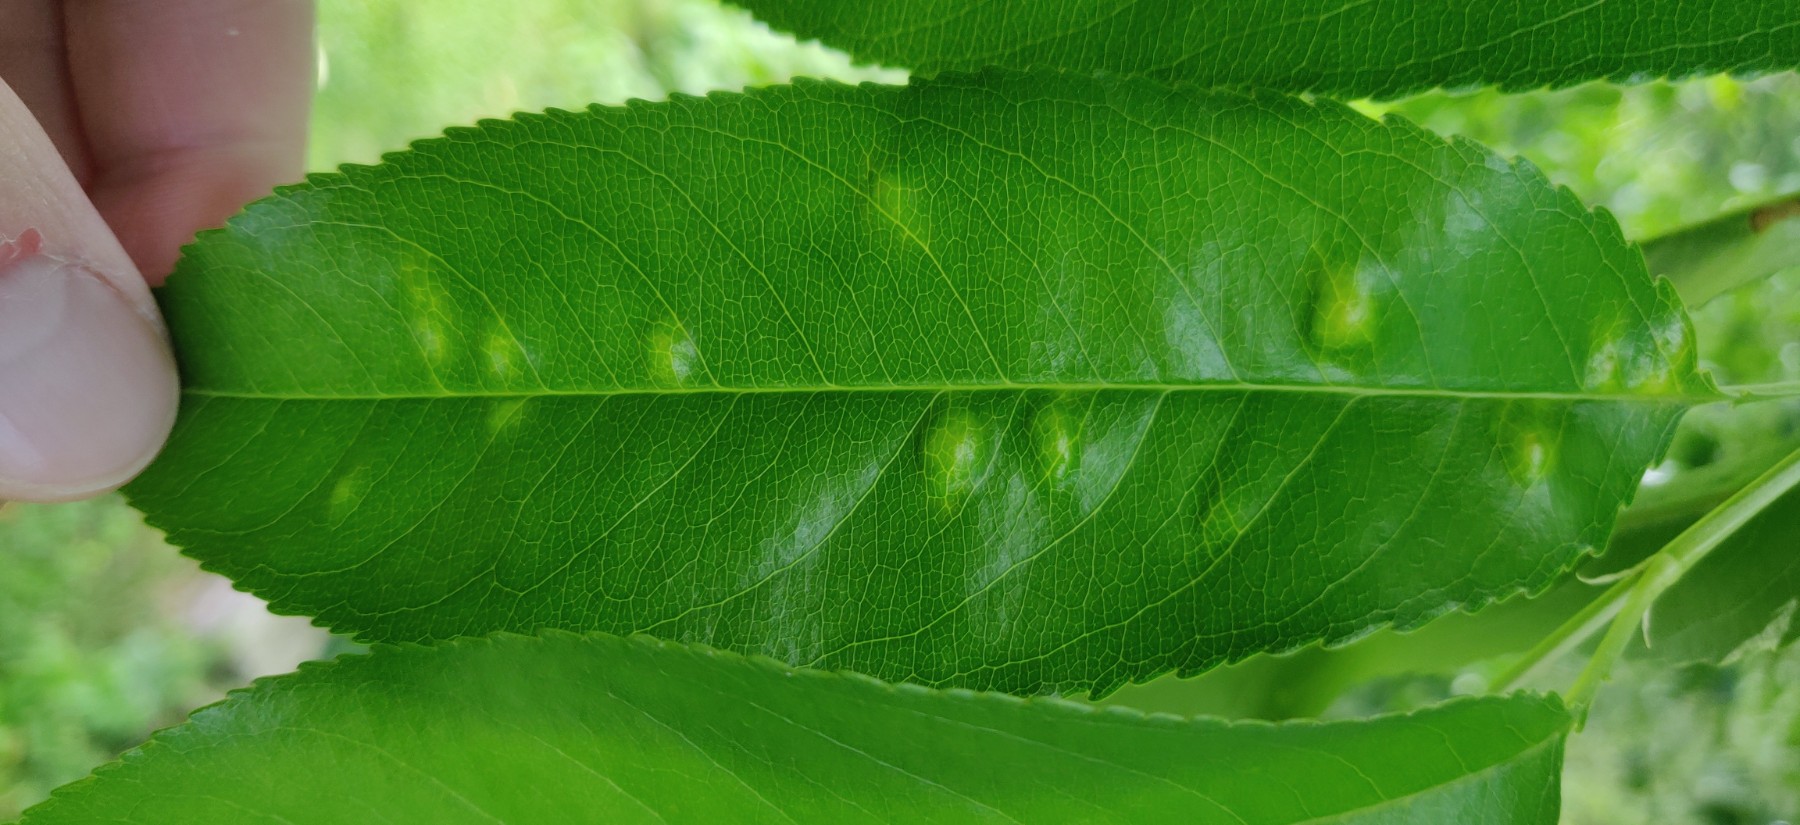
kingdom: Fungi
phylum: Ascomycota
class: Taphrinomycetes
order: Taphrinales
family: Taphrinaceae
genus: Taphrina
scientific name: Taphrina farlowii
